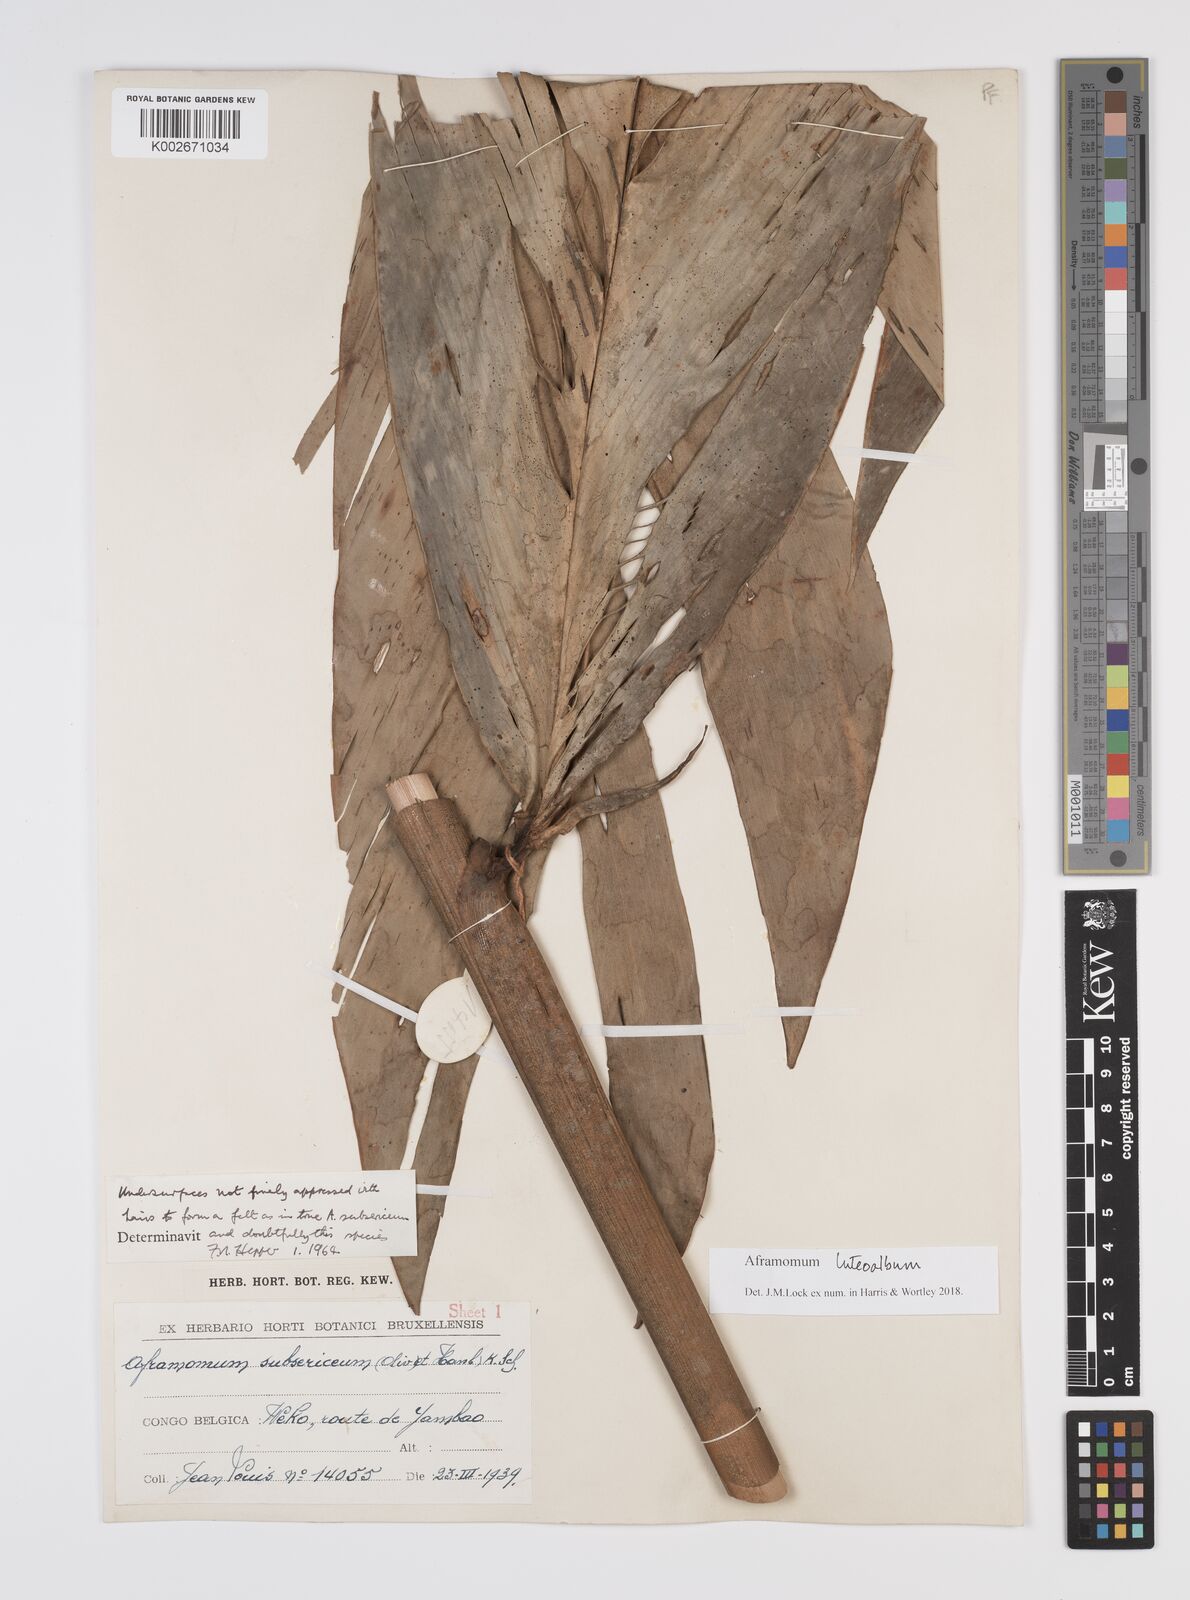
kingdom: Plantae
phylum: Tracheophyta
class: Liliopsida
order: Zingiberales
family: Zingiberaceae
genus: Aframomum
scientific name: Aframomum luteoalbum
